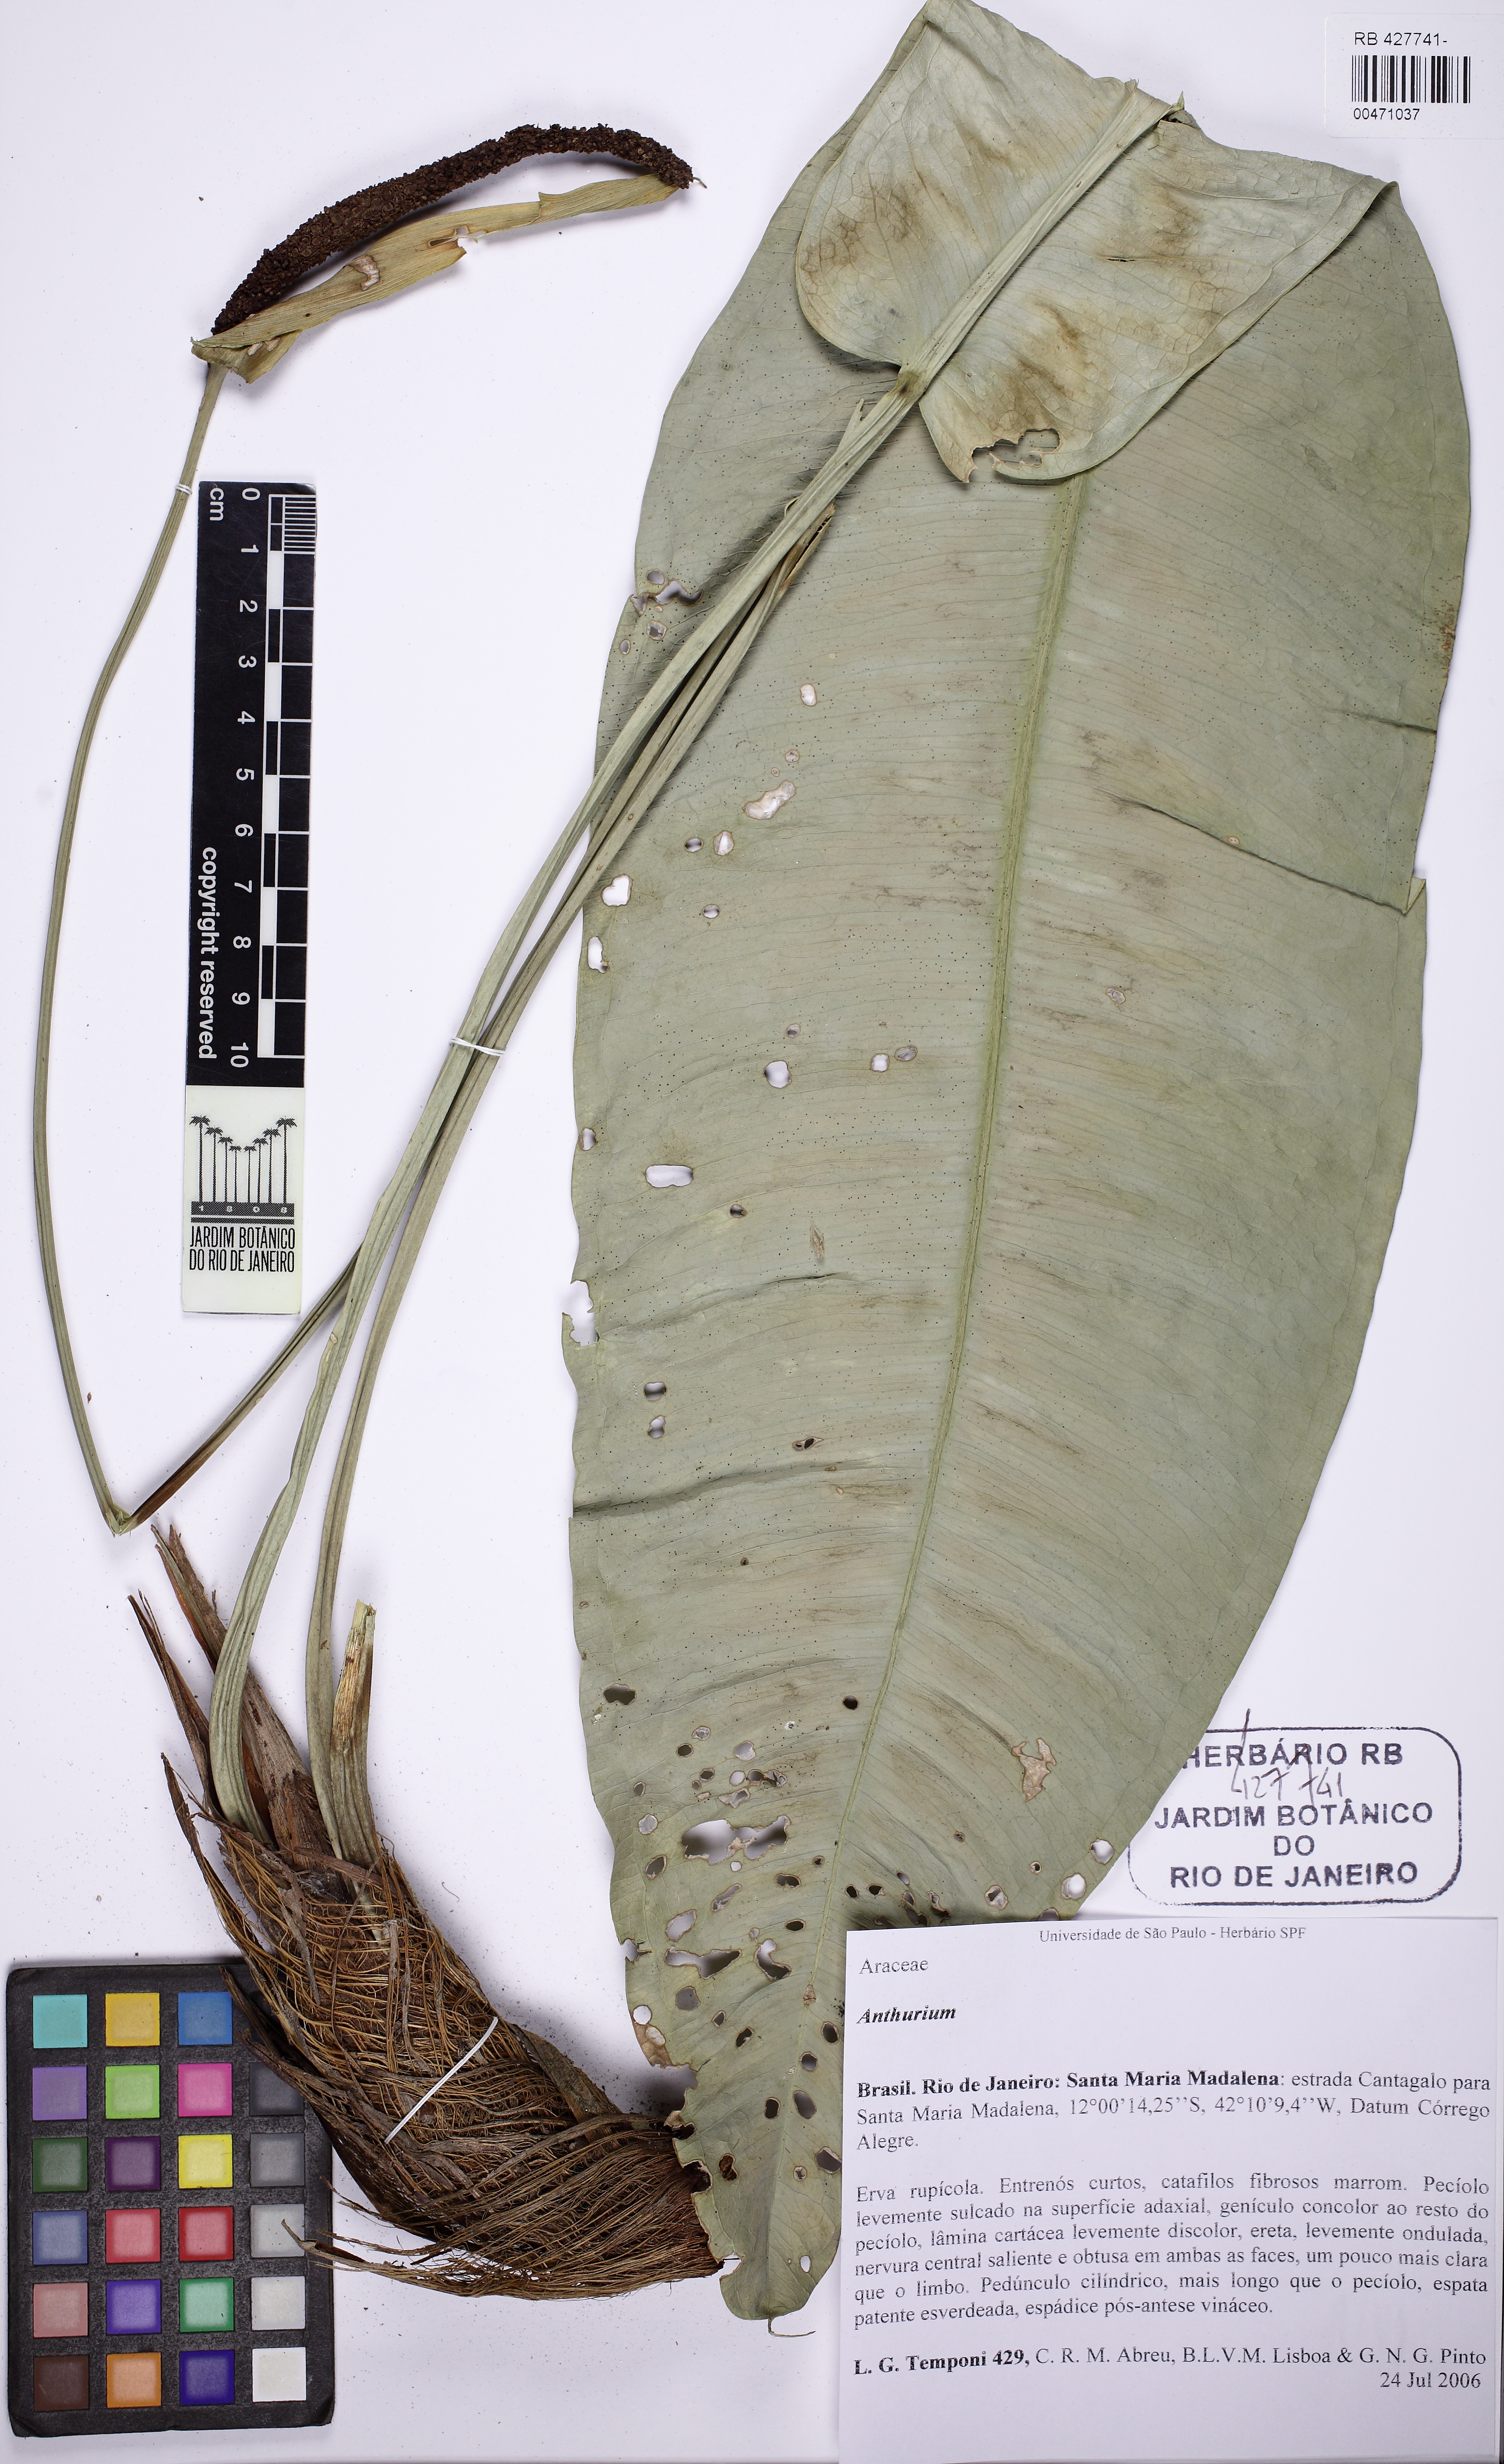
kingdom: Plantae
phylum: Tracheophyta
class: Liliopsida
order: Alismatales
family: Araceae
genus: Anthurium
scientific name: Anthurium polynervium
